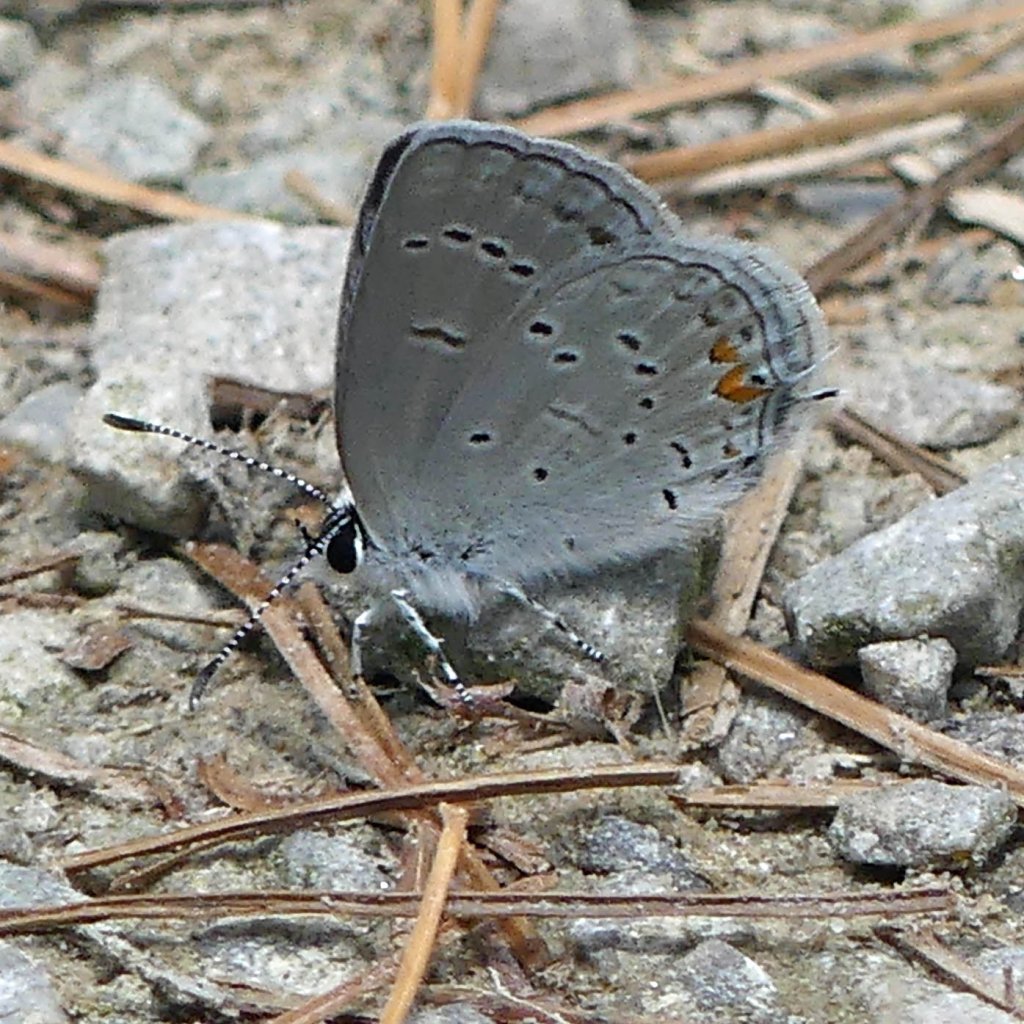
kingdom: Animalia
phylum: Arthropoda
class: Insecta
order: Lepidoptera
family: Lycaenidae
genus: Elkalyce
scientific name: Elkalyce comyntas
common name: Eastern Tailed-Blue
